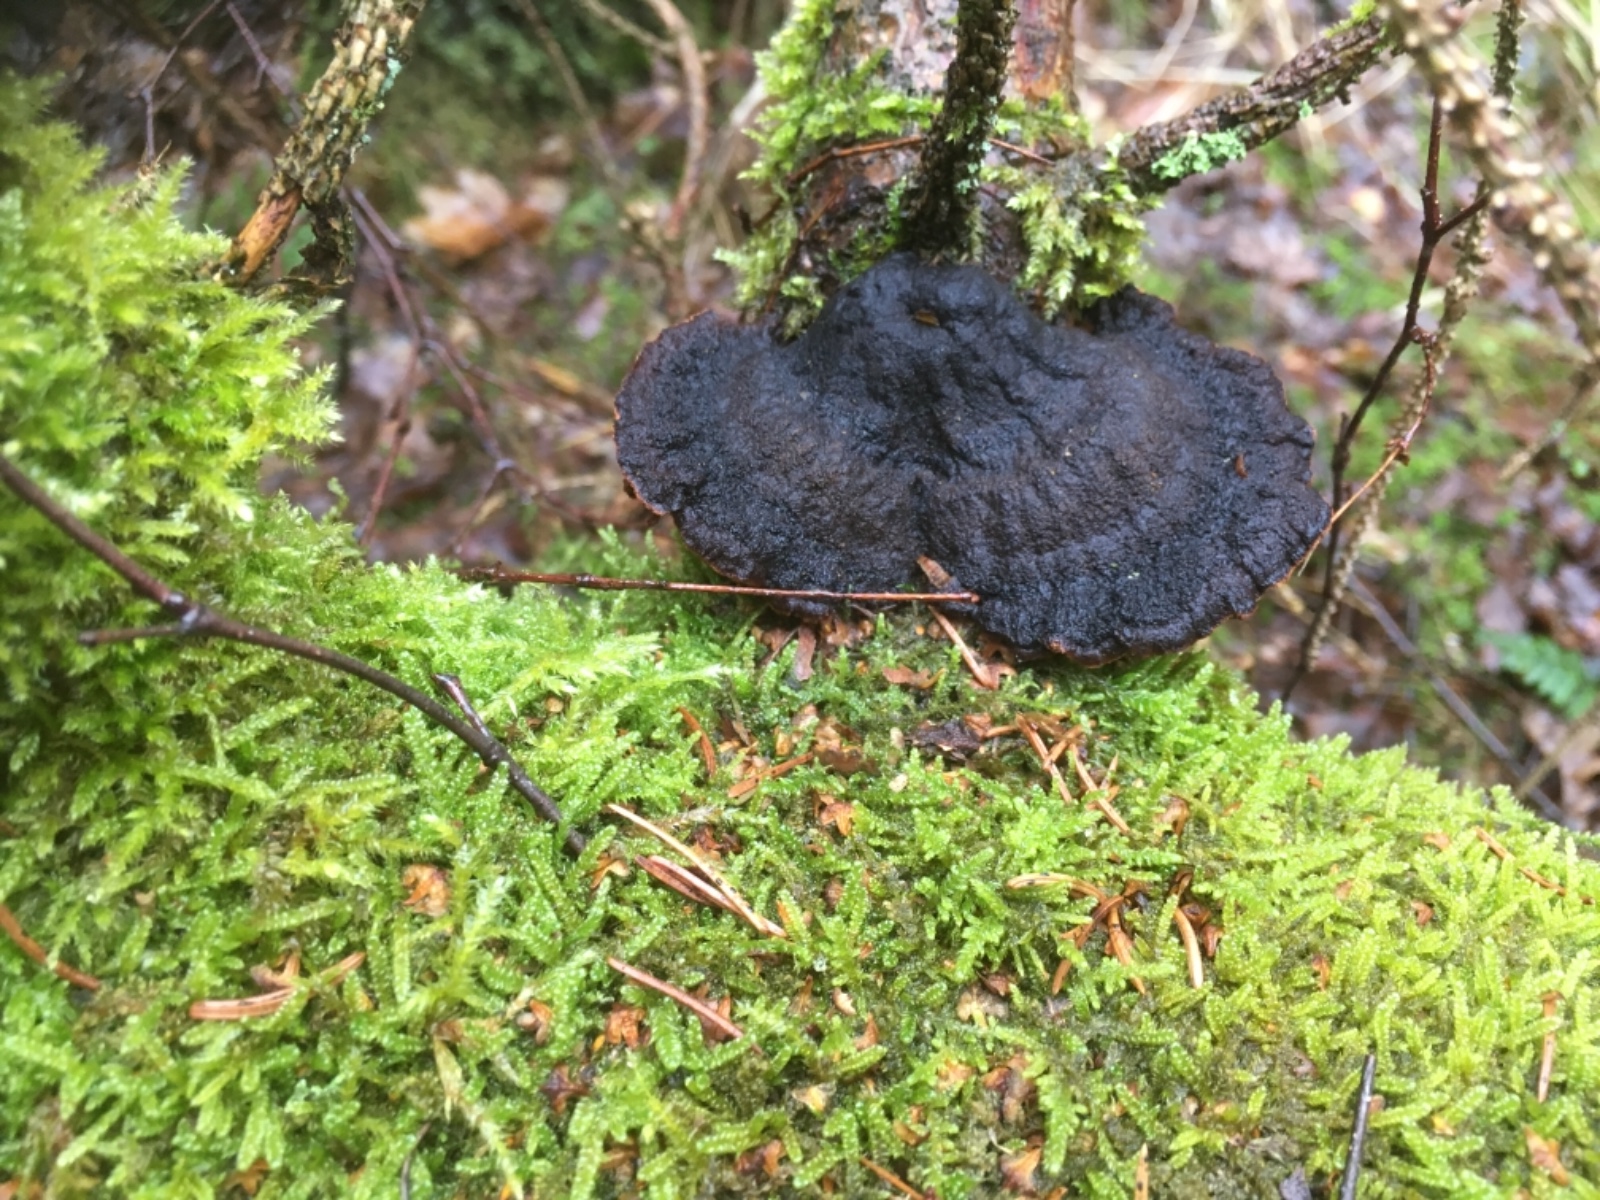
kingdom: Fungi
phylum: Basidiomycota
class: Agaricomycetes
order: Polyporales
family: Ischnodermataceae
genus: Ischnoderma
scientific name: Ischnoderma benzoinum
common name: gran-tjæreporesvamp
